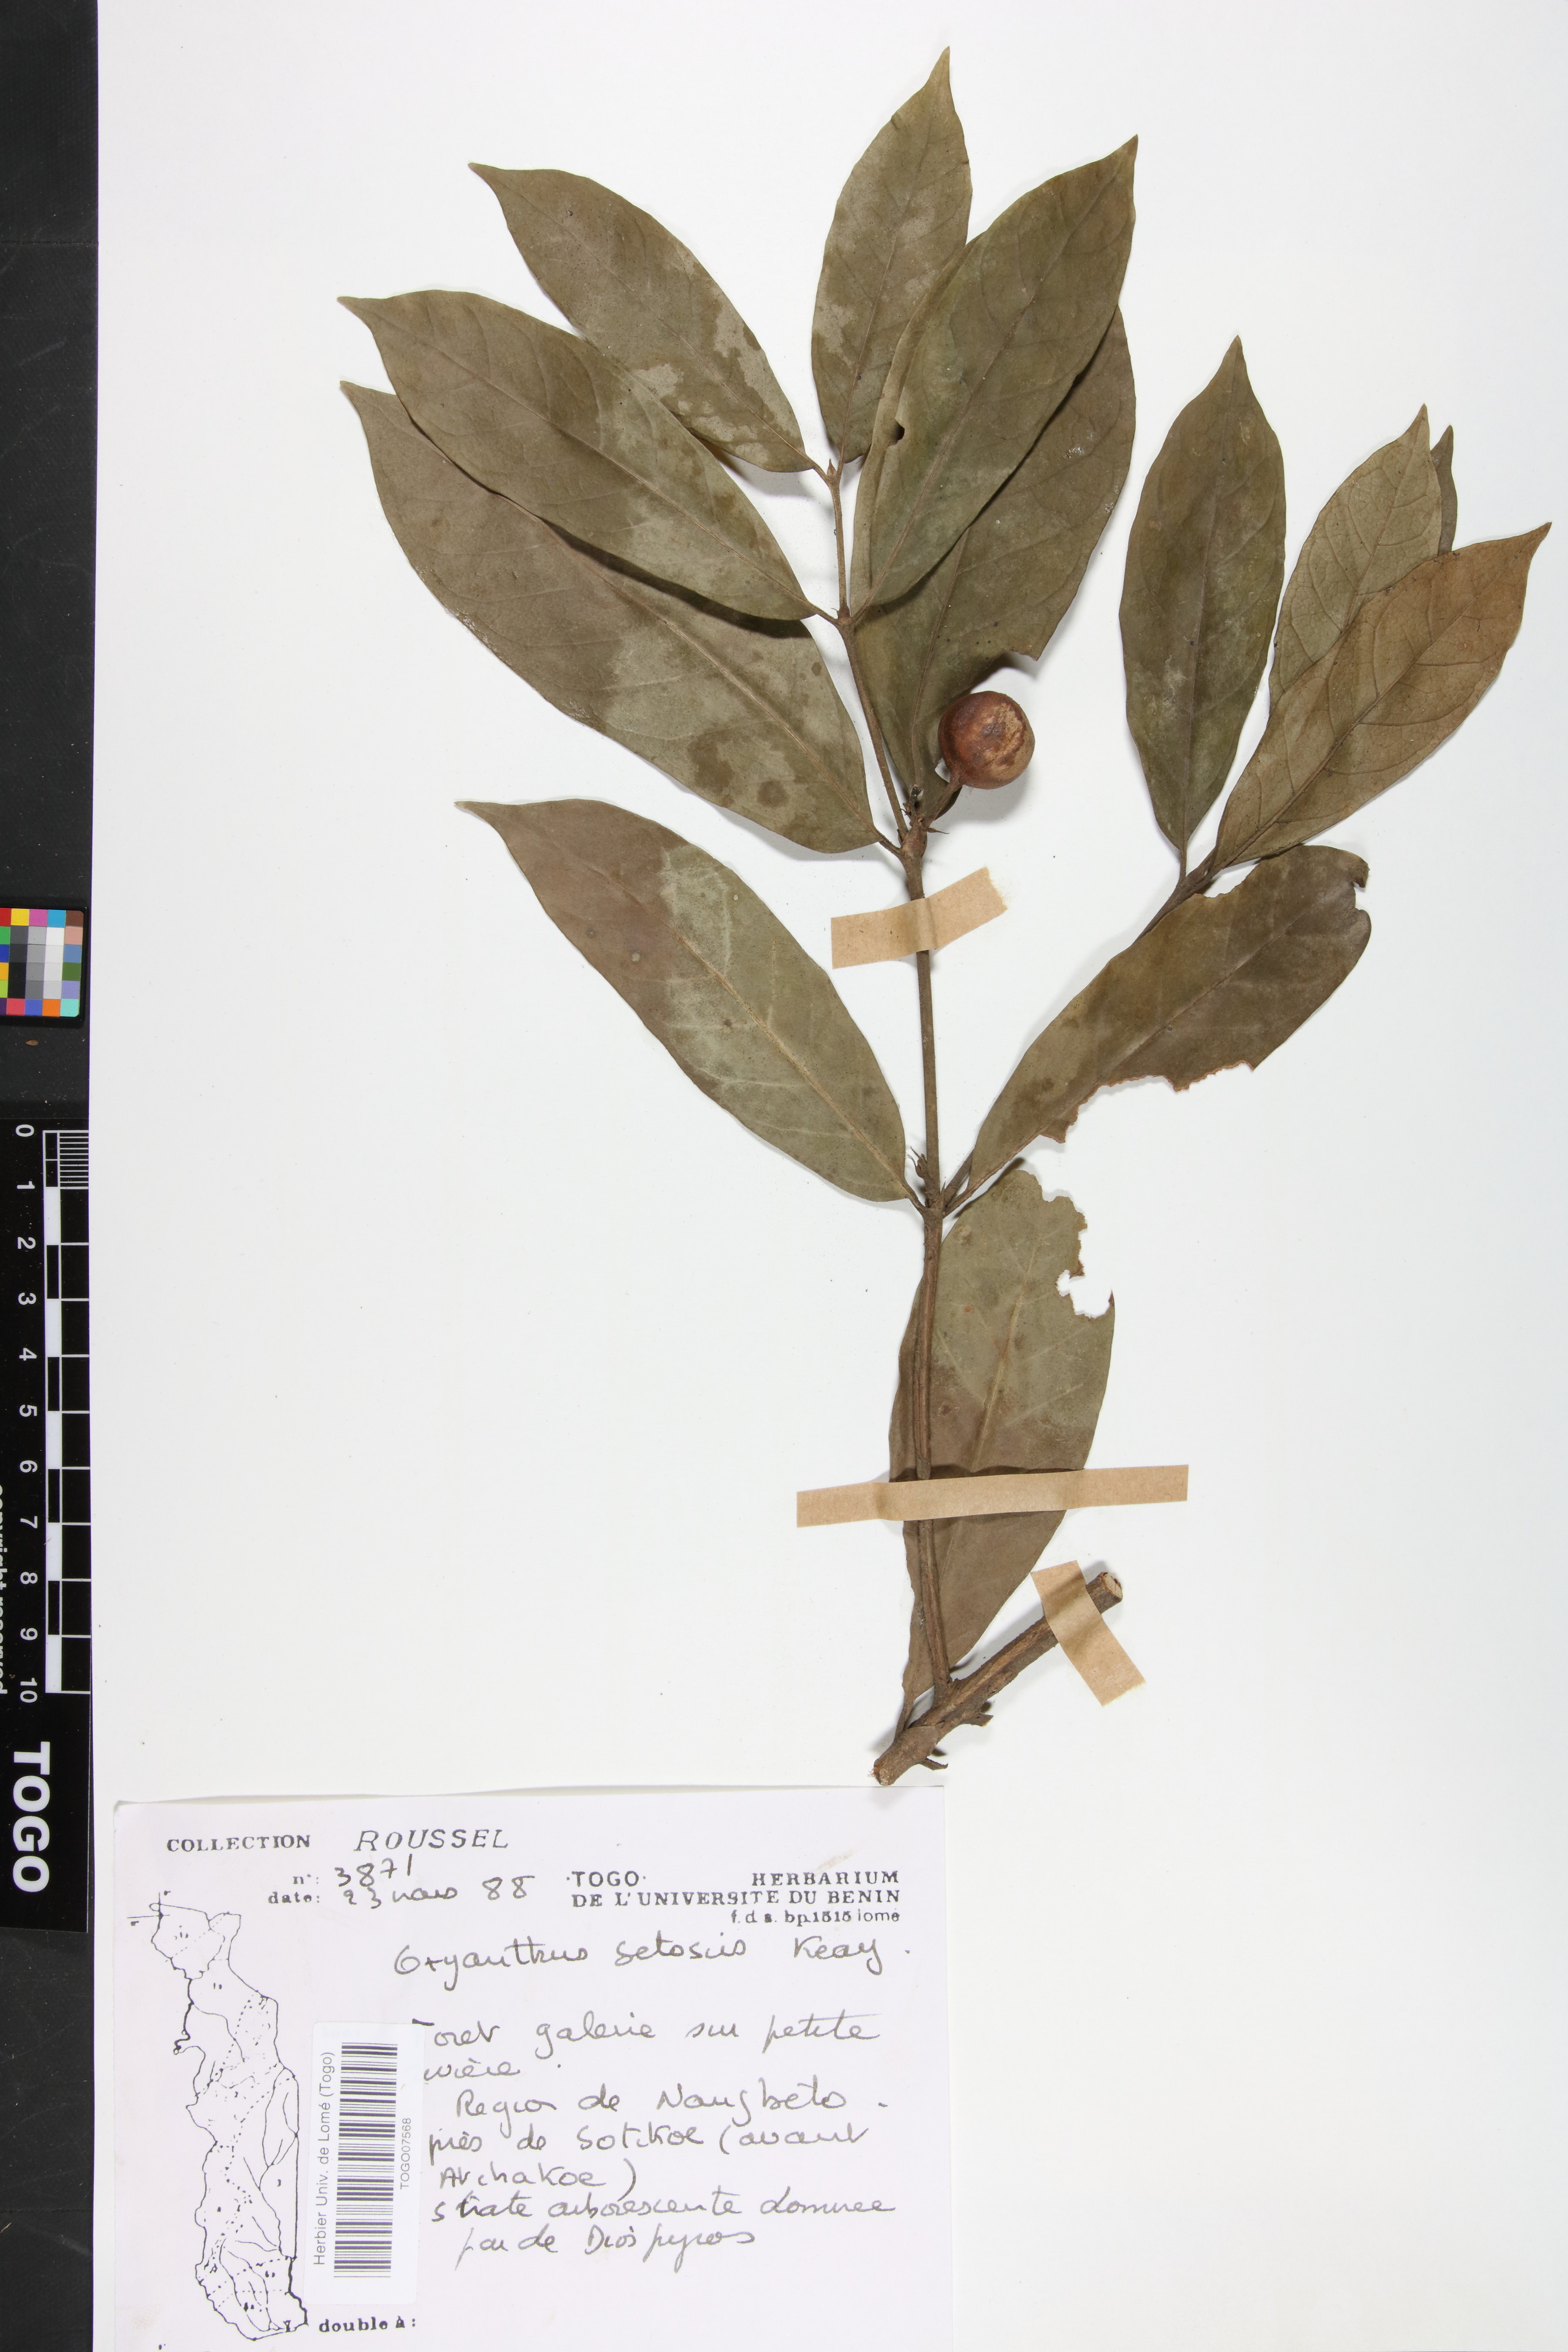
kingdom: Plantae
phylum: Tracheophyta
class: Magnoliopsida
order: Gentianales
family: Rubiaceae
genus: Oxyanthus
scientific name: Oxyanthus setosus
